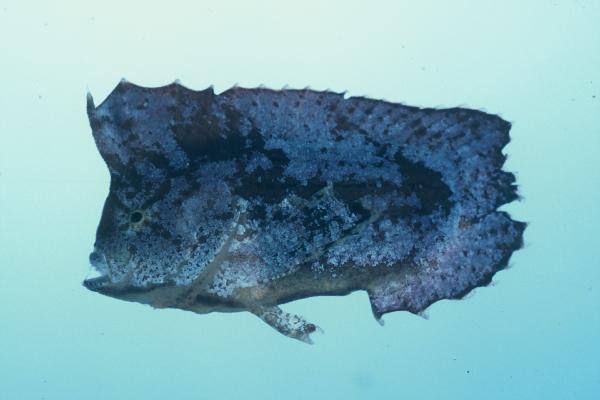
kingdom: Animalia
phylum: Chordata
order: Scorpaeniformes
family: Tetrarogidae
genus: Ablabys
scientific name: Ablabys binotatus
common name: Redskinfish
